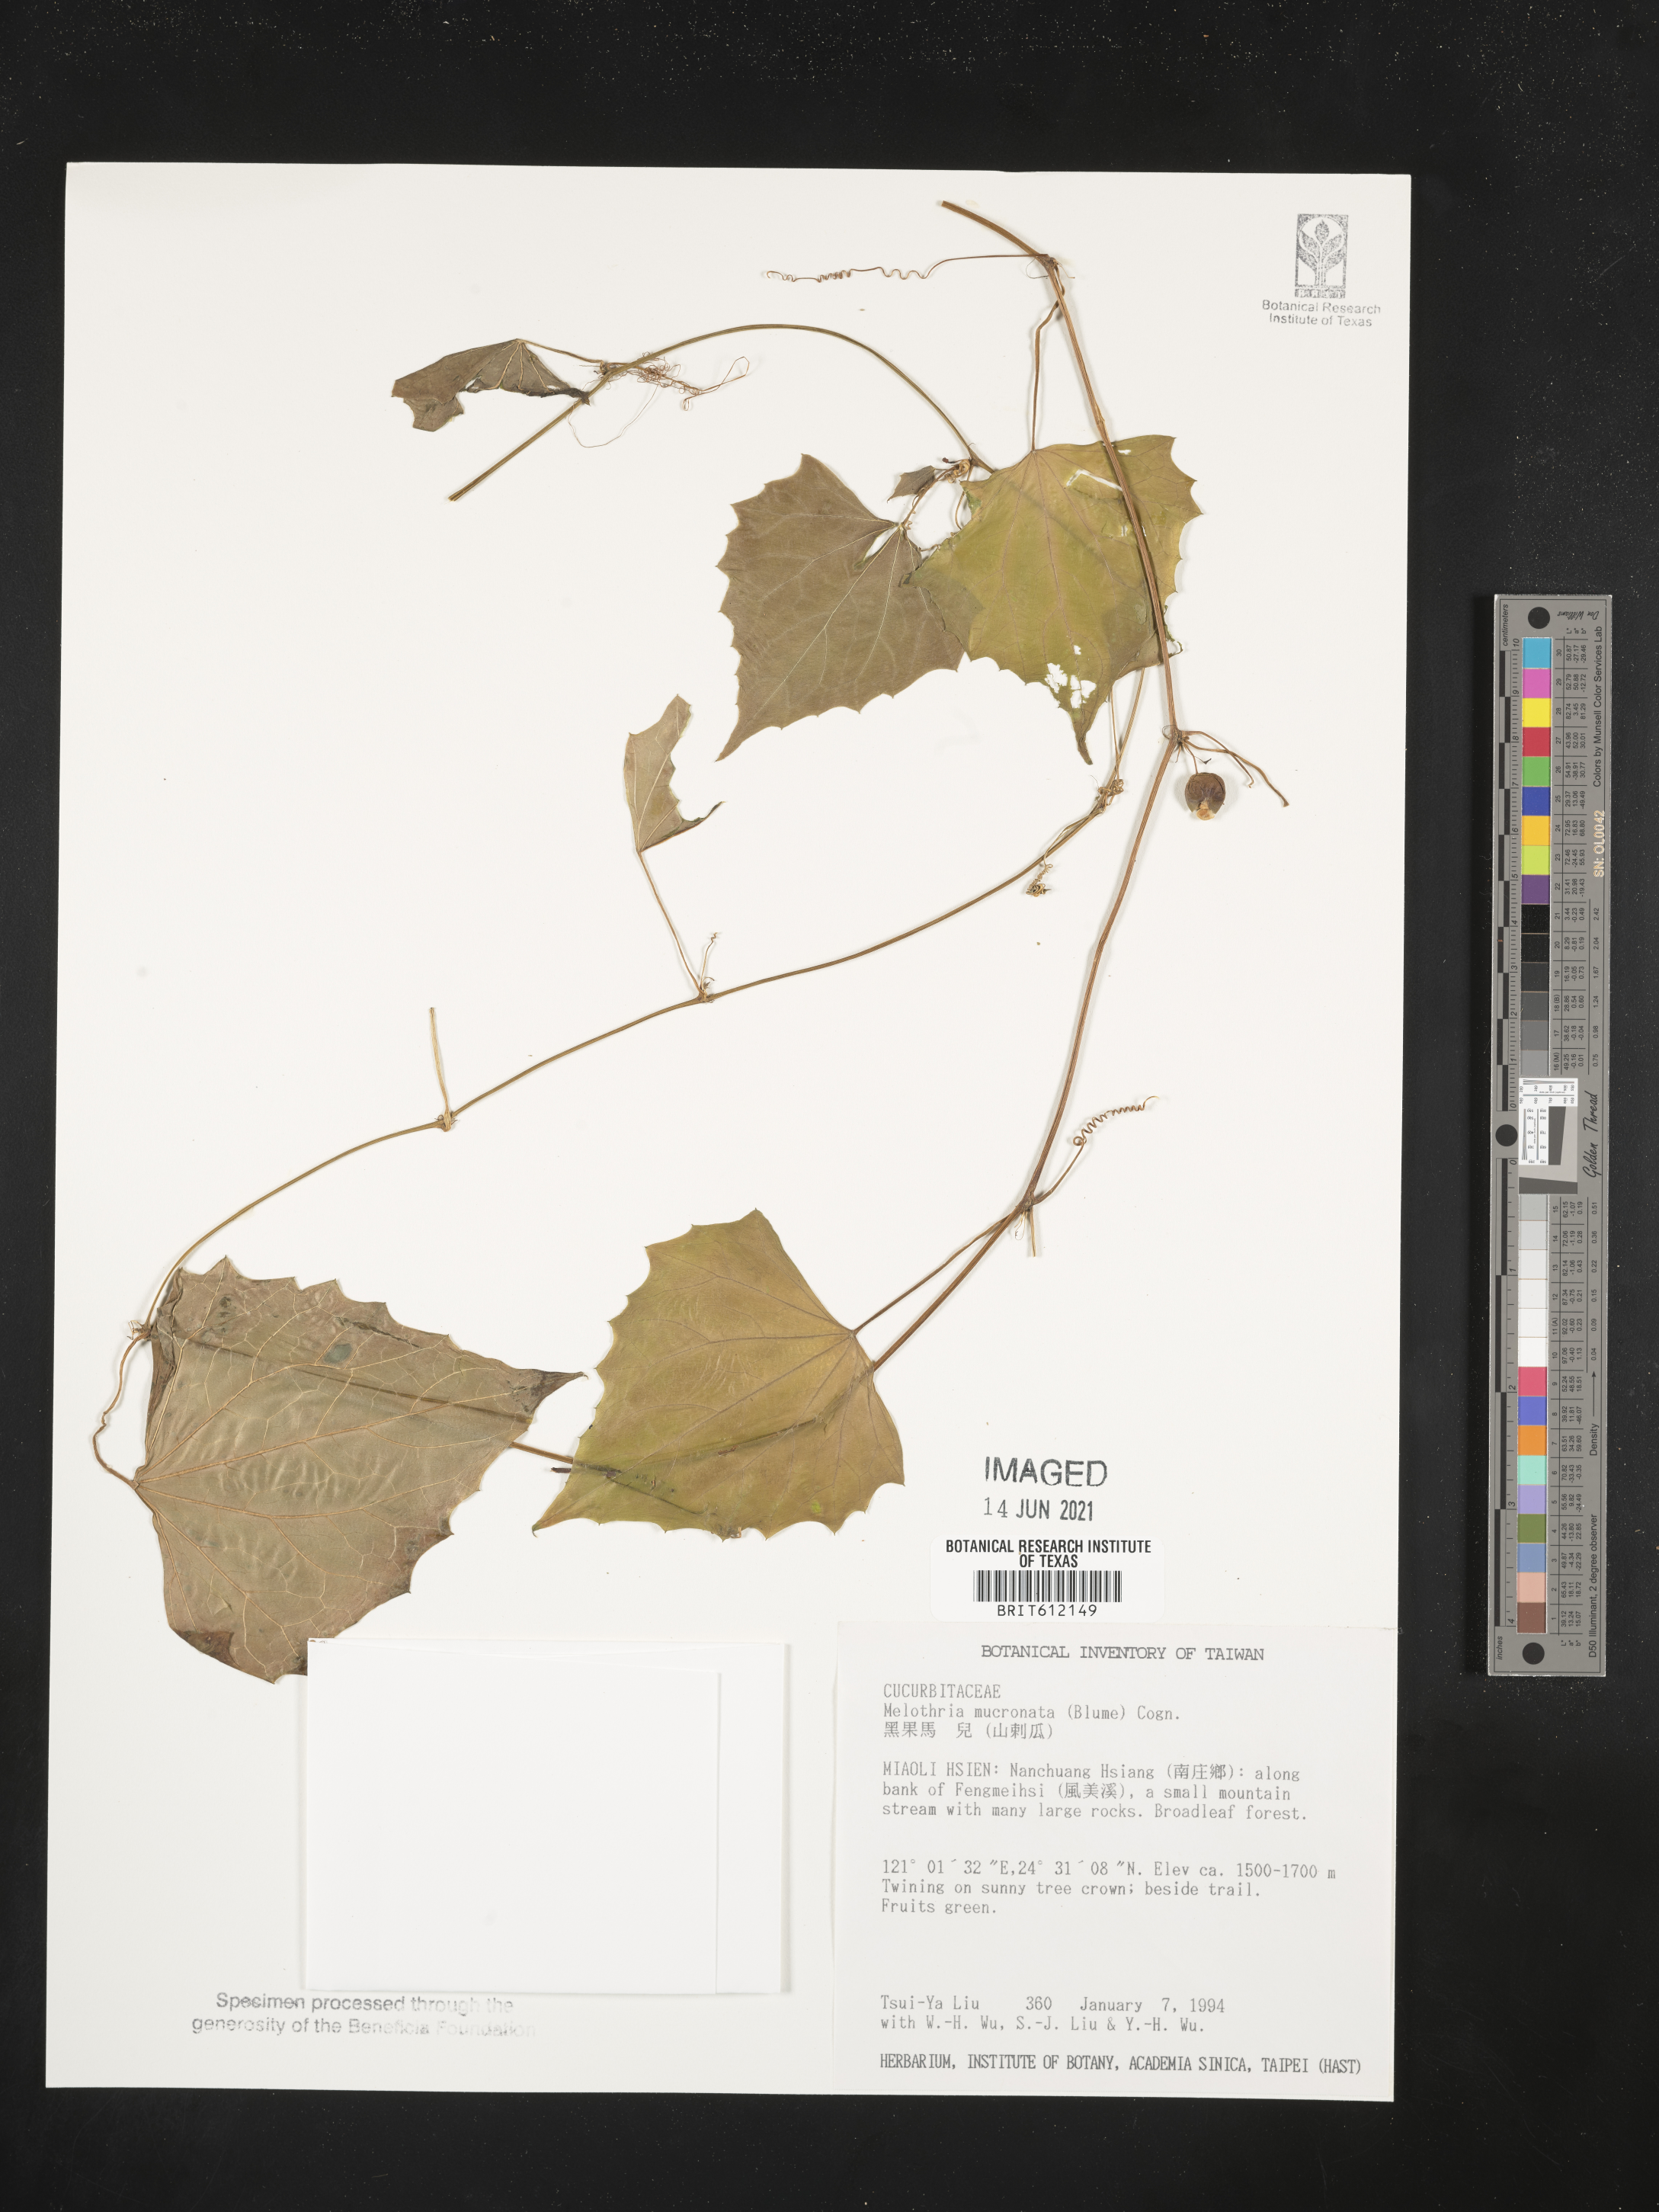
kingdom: Plantae
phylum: Tracheophyta
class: Magnoliopsida
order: Cucurbitales
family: Cucurbitaceae
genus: Zehneria
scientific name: Zehneria mucronata
